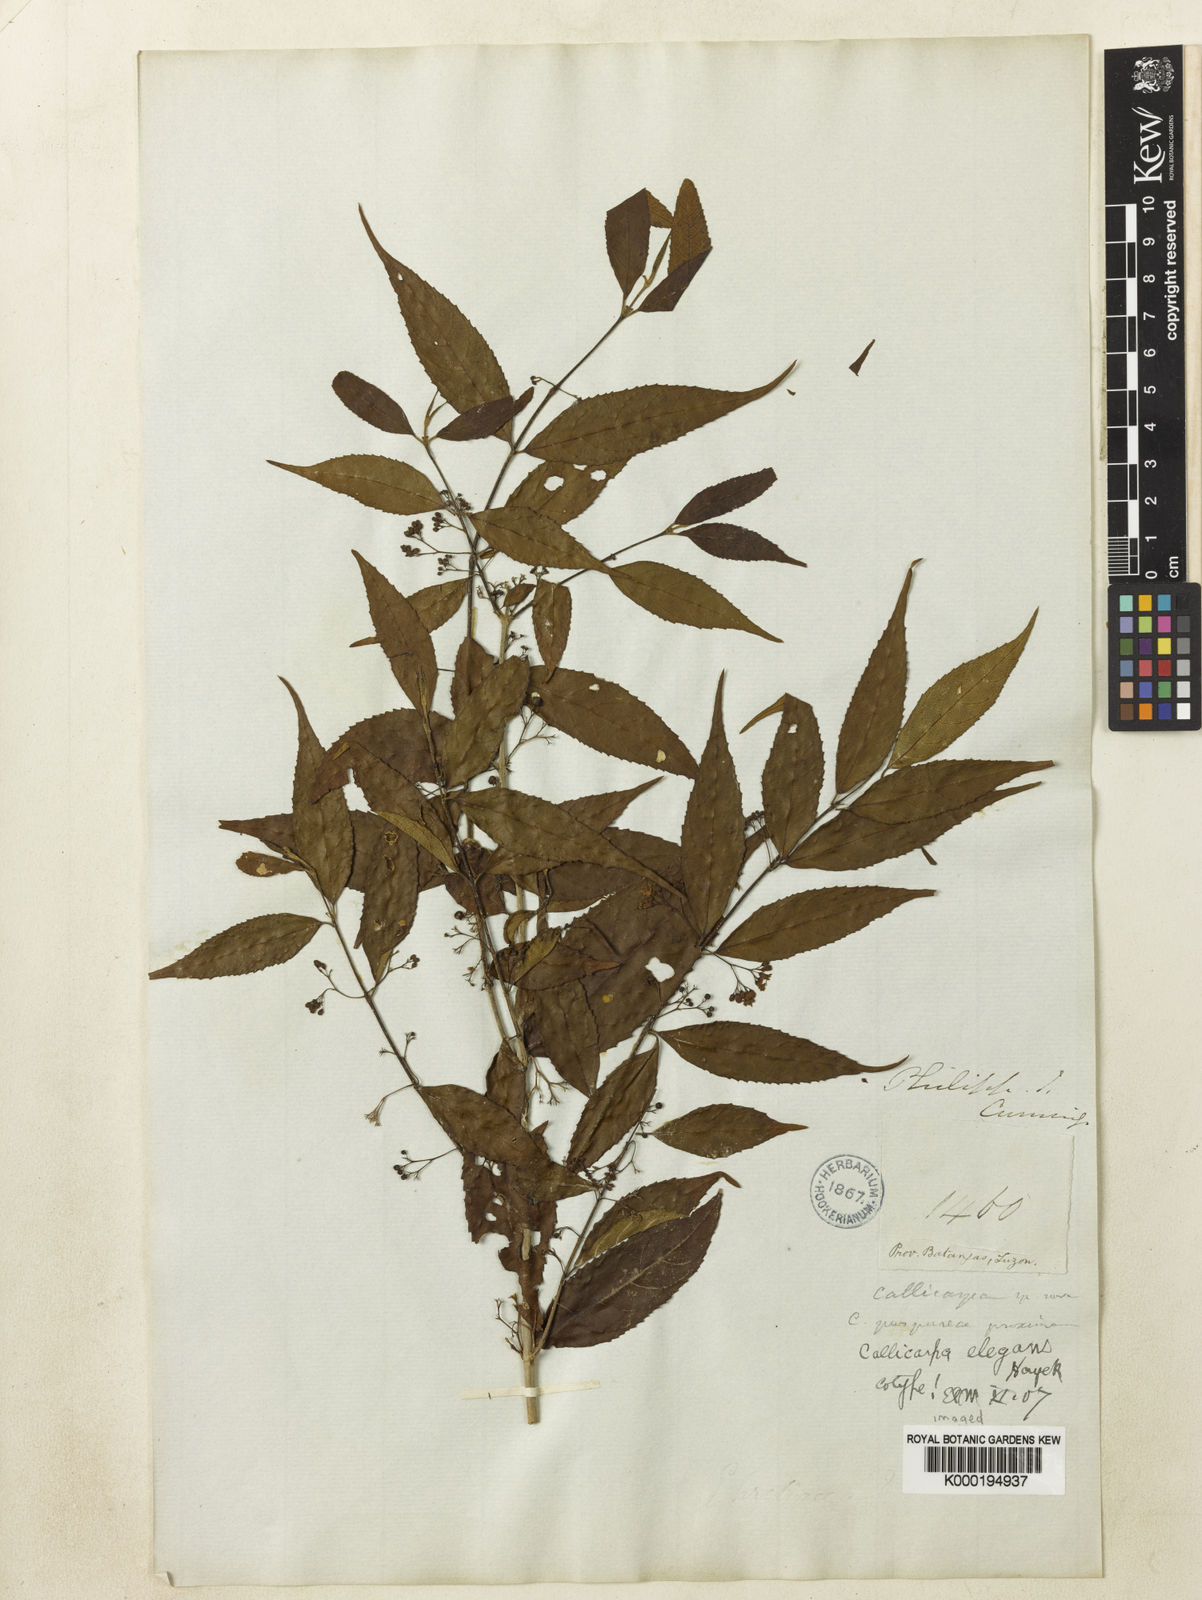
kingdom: Plantae
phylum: Tracheophyta
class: Magnoliopsida
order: Lamiales
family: Lamiaceae
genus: Callicarpa
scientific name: Callicarpa
